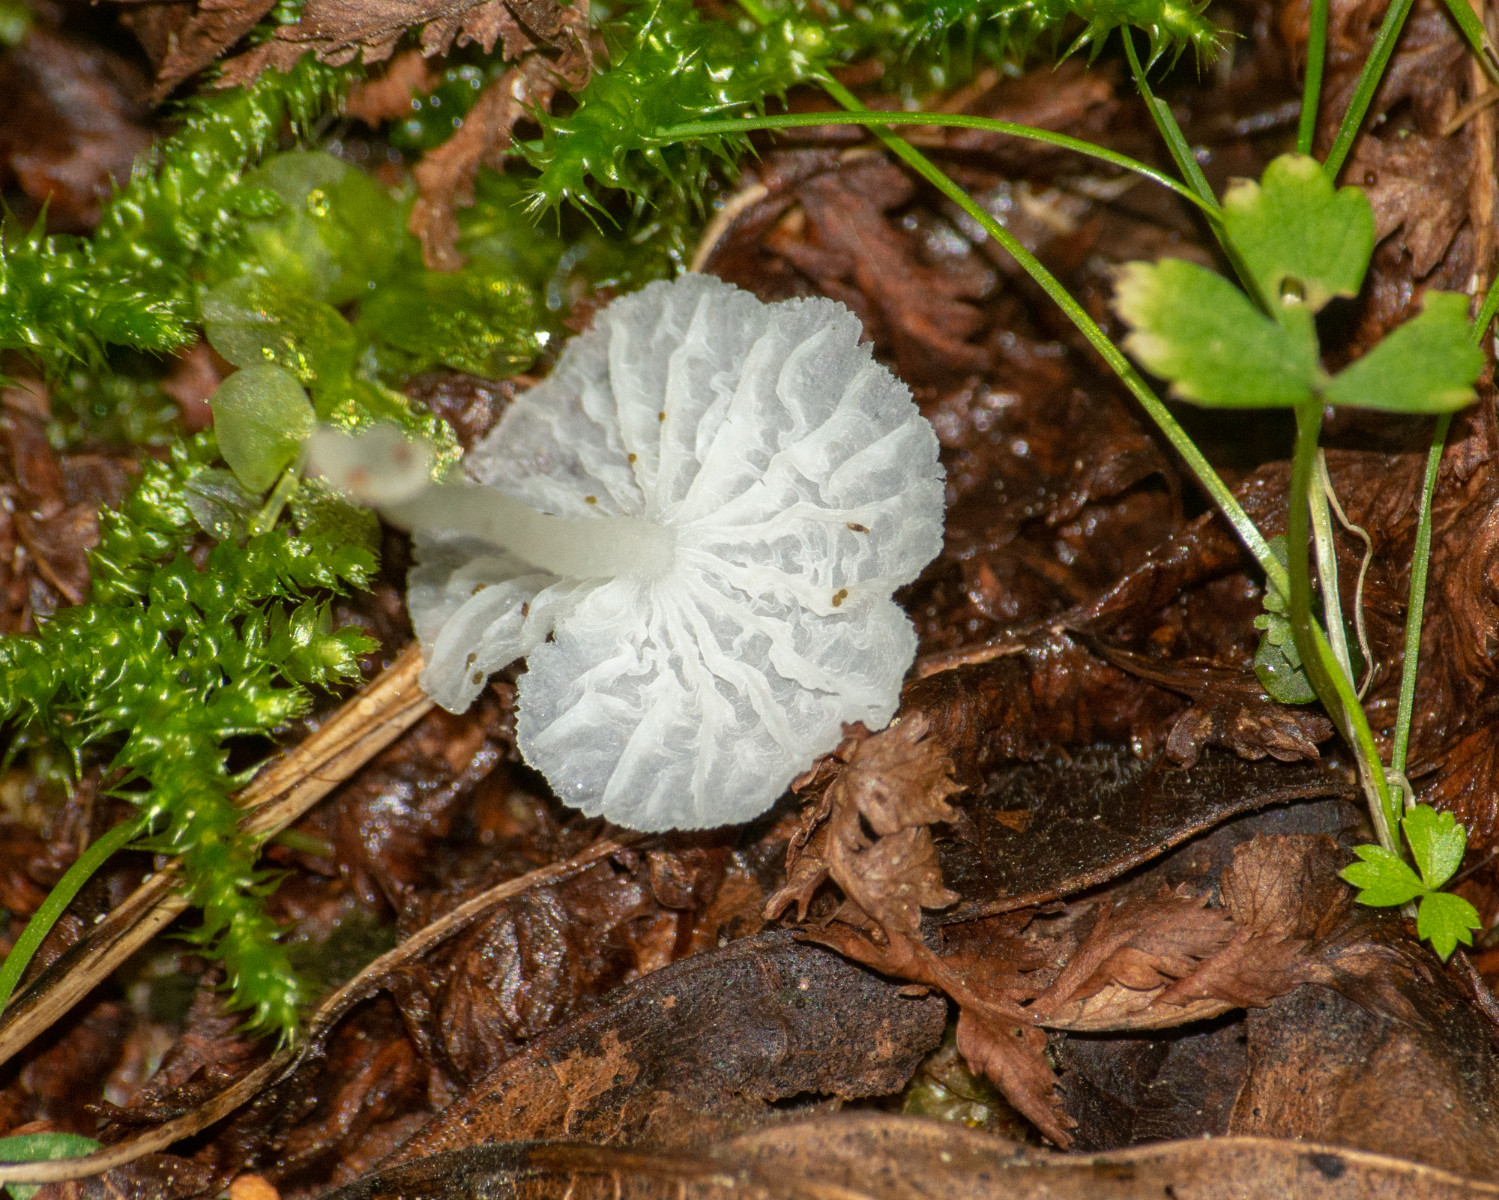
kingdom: Fungi
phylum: Basidiomycota
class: Agaricomycetes
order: Agaricales
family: Tricholomataceae
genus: Delicatula
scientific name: Delicatula integrella
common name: slørhuesvamp
